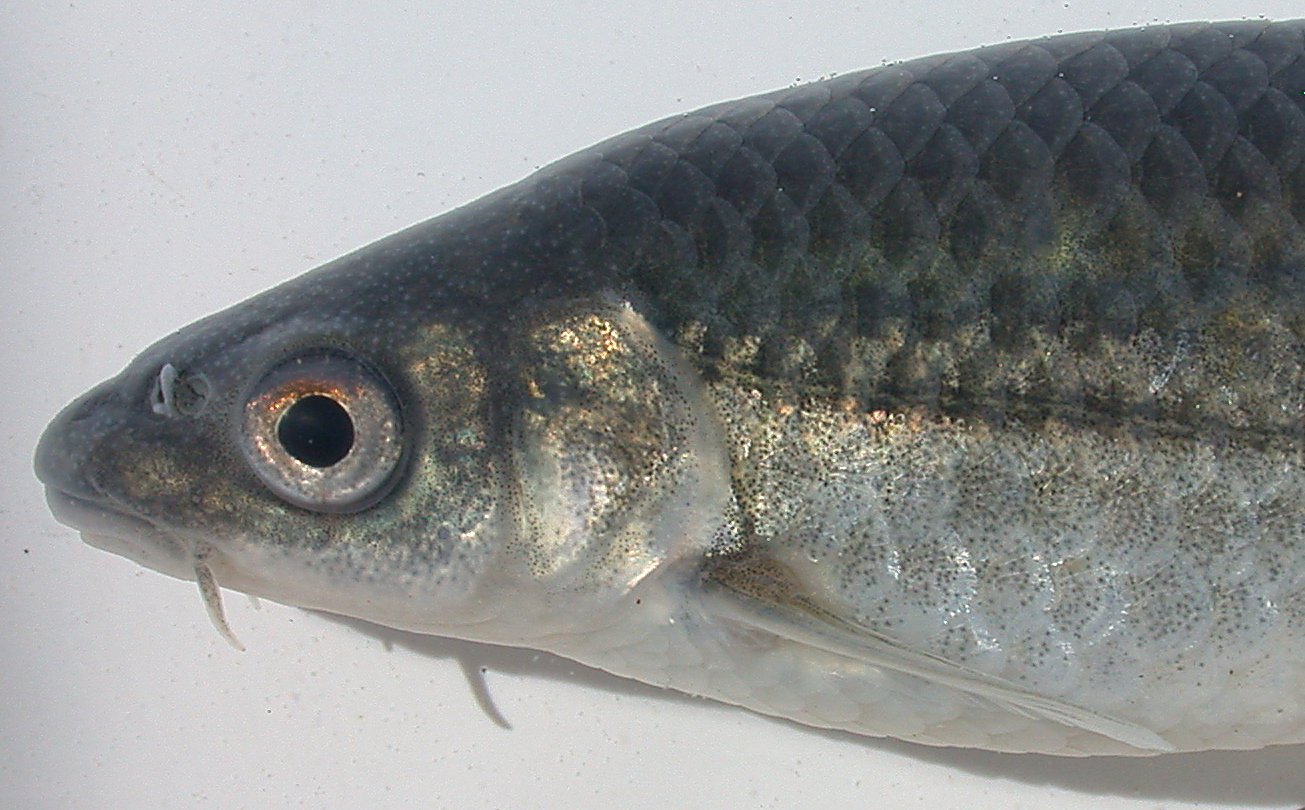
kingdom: Animalia
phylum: Chordata
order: Cypriniformes
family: Cyprinidae
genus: Pseudobarbus
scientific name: Pseudobarbus trevelyani
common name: Border barb
